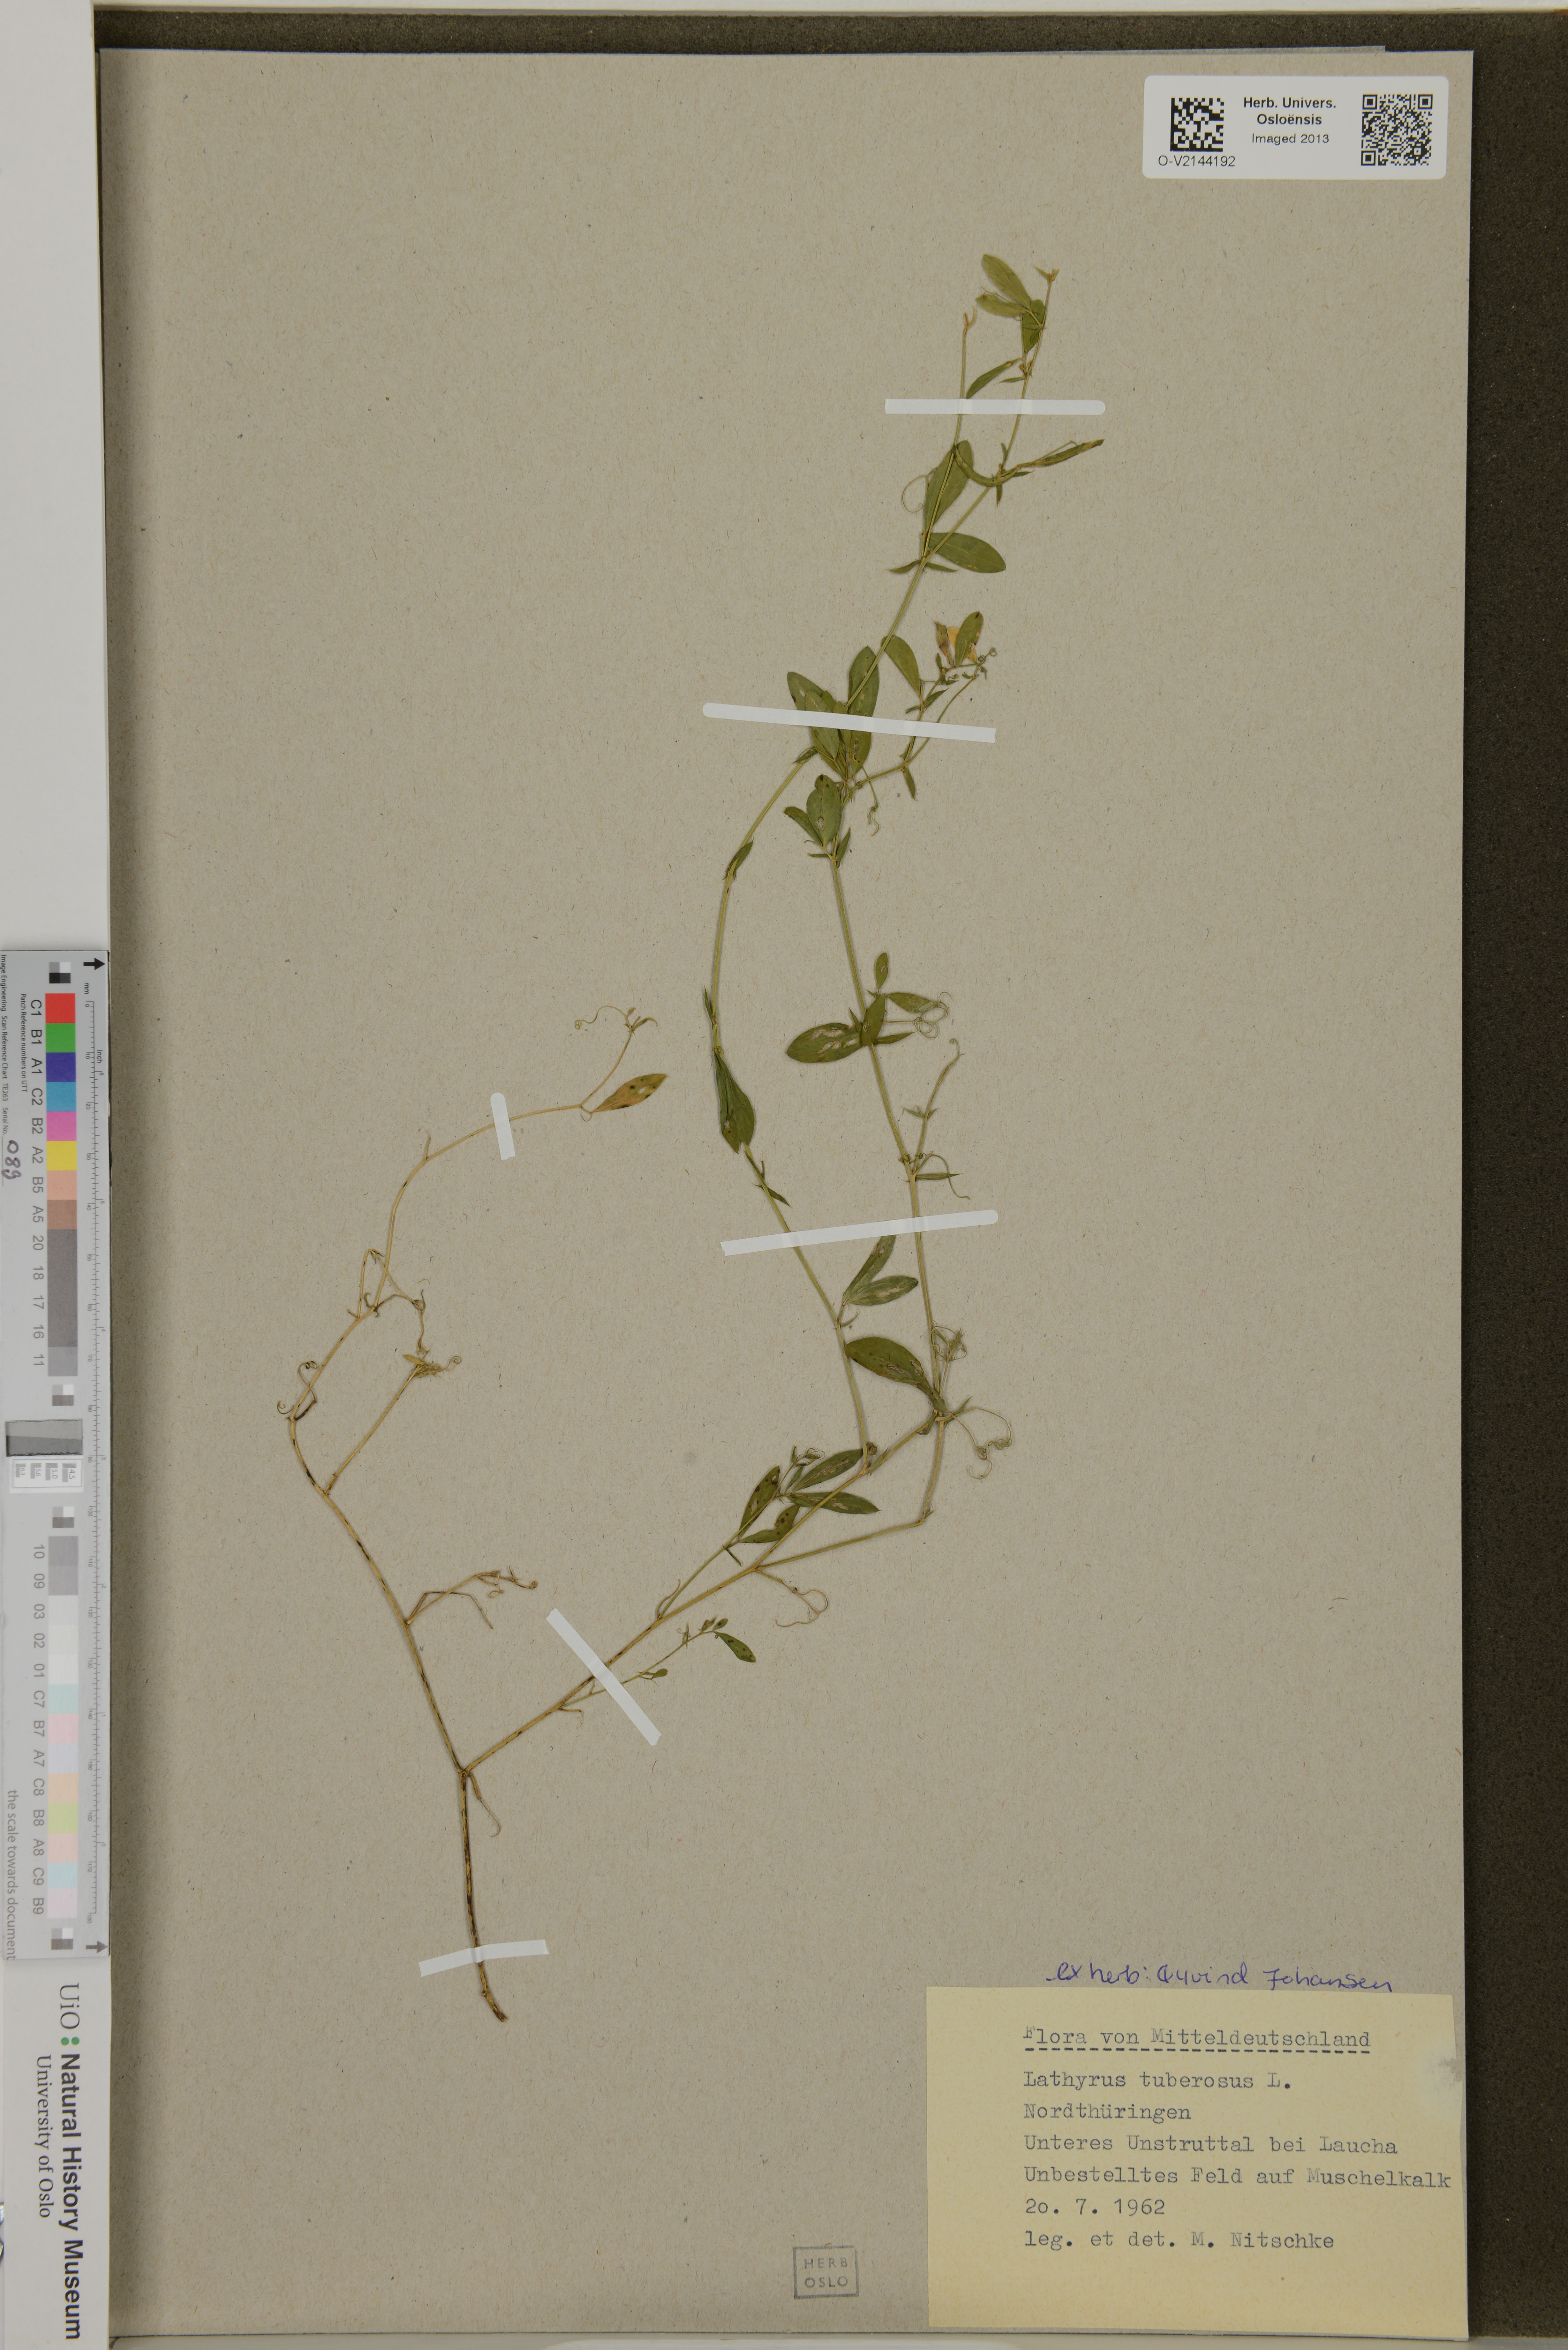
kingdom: Plantae
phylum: Tracheophyta
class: Magnoliopsida
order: Fabales
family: Fabaceae
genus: Lathyrus
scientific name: Lathyrus tuberosus
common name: Tuberous pea
